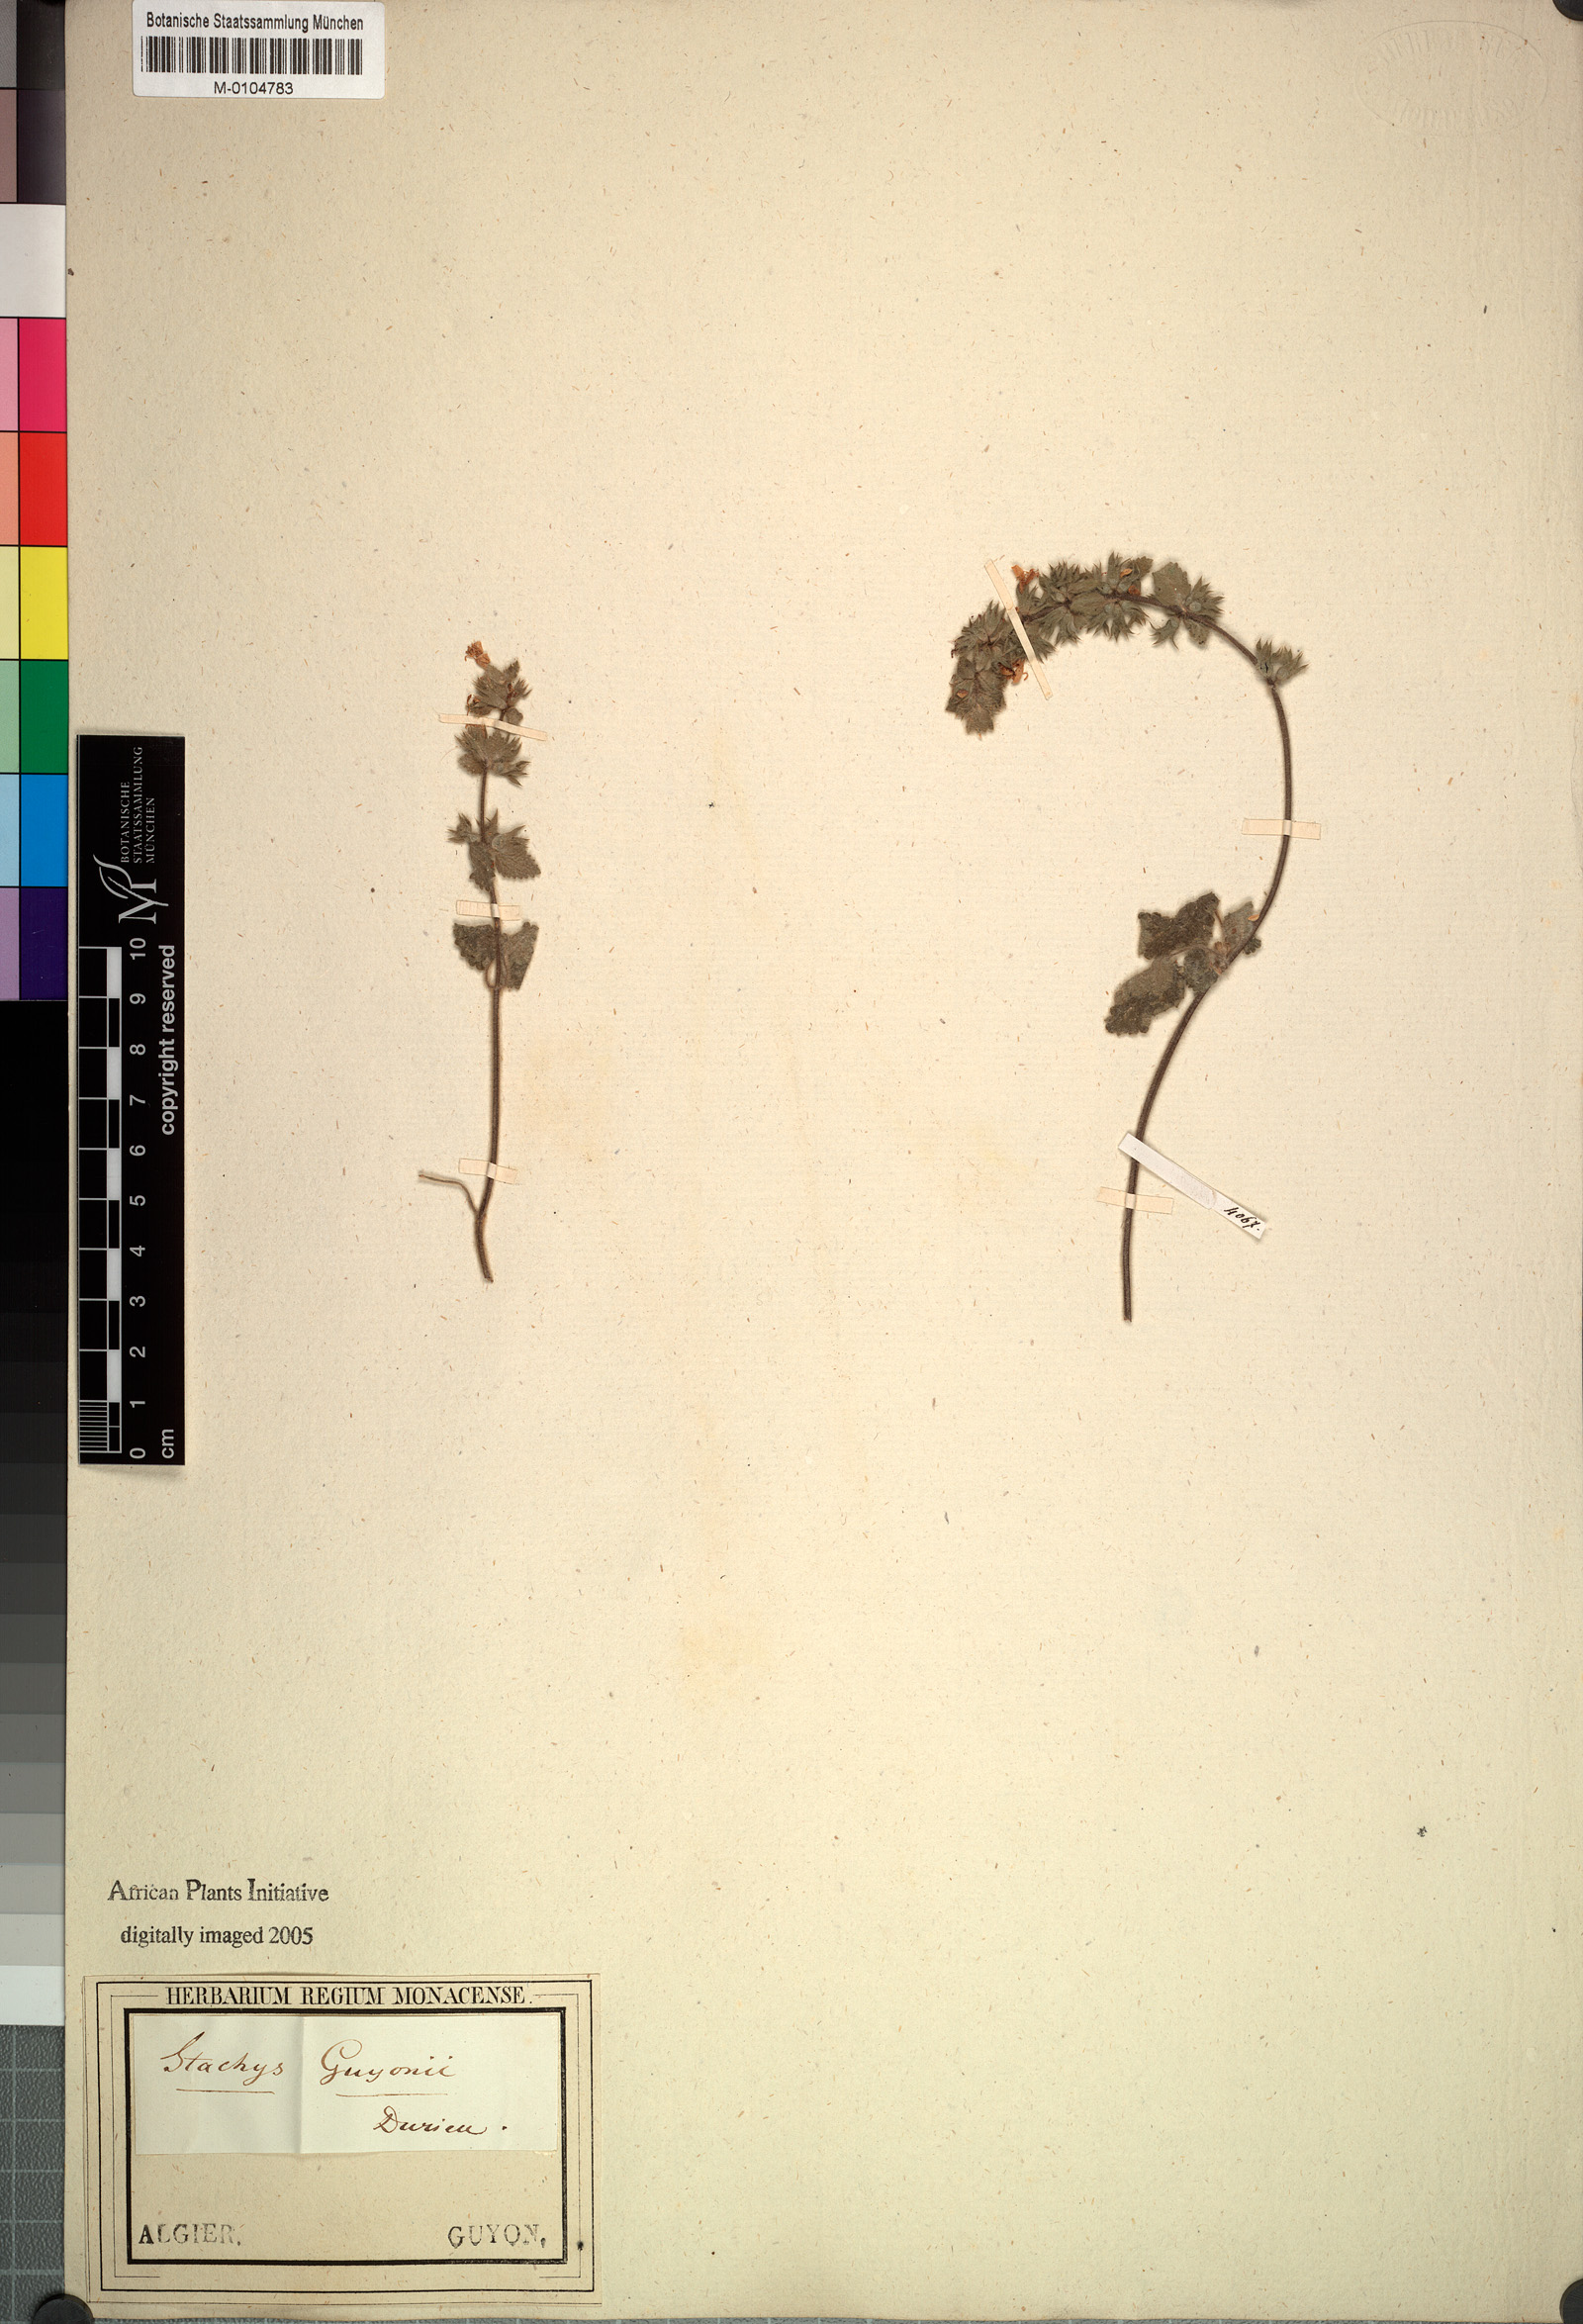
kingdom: Plantae
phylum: Tracheophyta
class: Magnoliopsida
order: Lamiales
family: Lamiaceae
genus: Stachys
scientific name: Stachys
